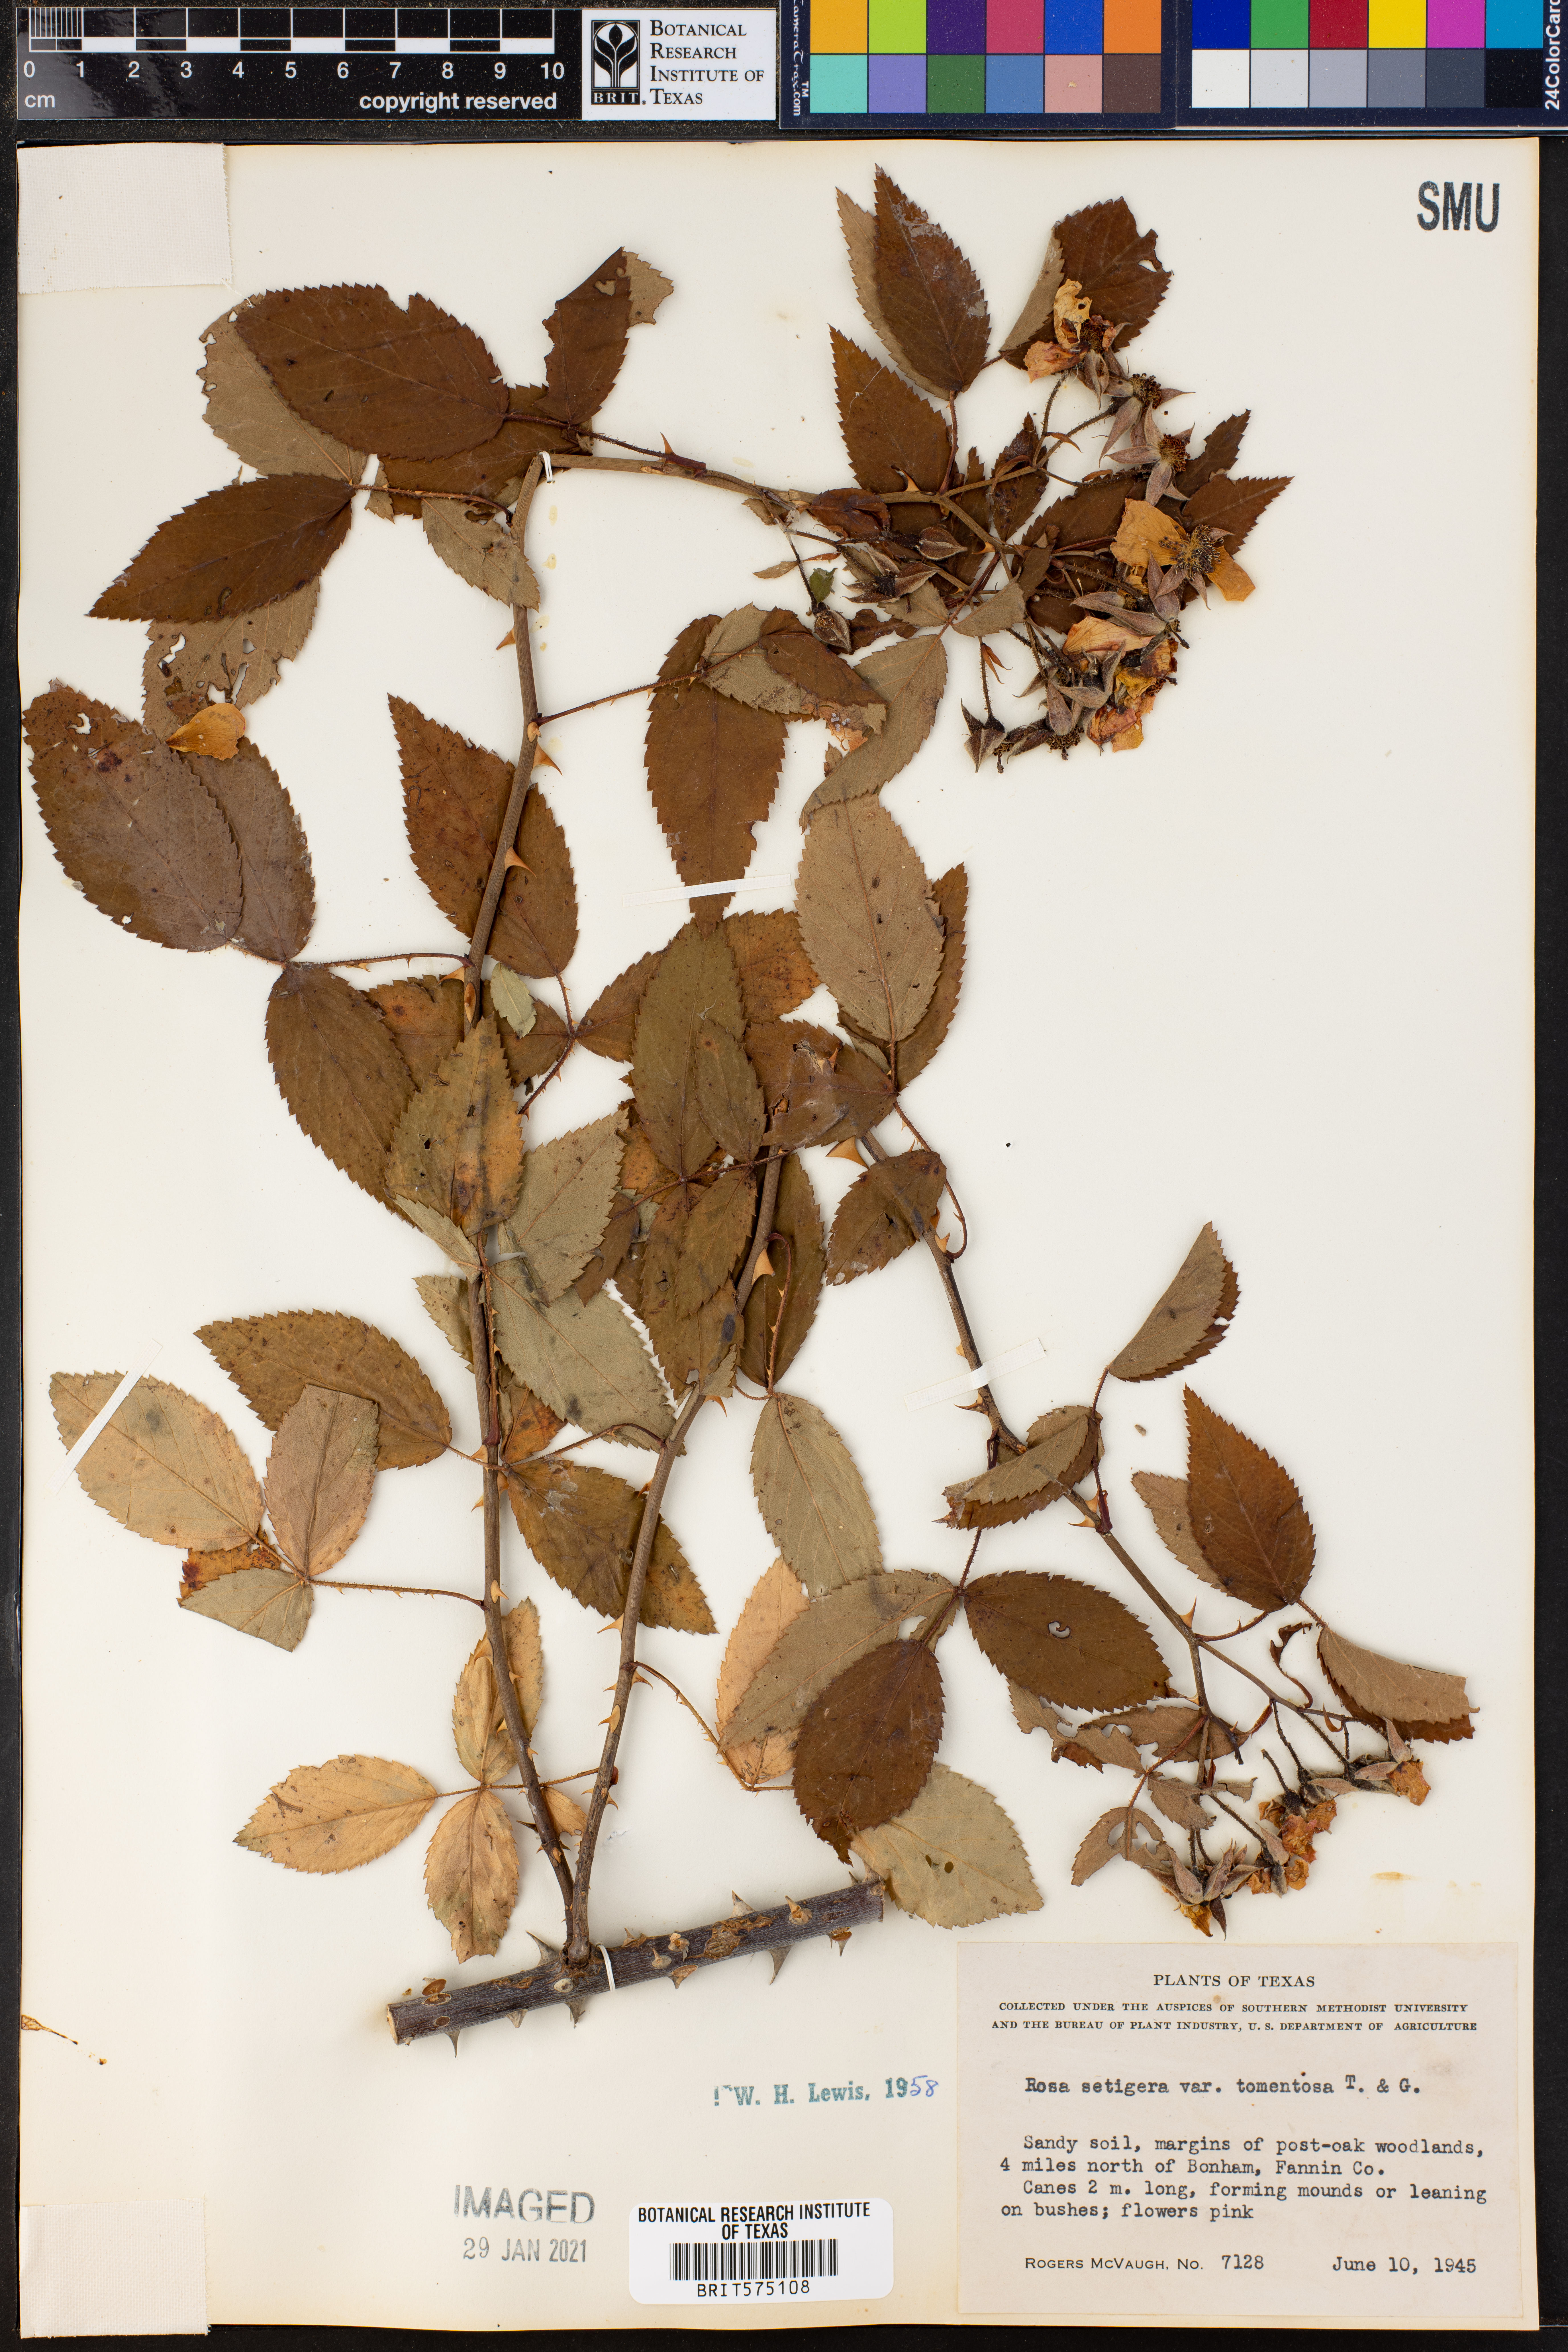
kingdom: Plantae
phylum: Tracheophyta
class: Magnoliopsida
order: Rosales
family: Rosaceae
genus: Rosa
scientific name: Rosa setigera
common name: Prairie rose
